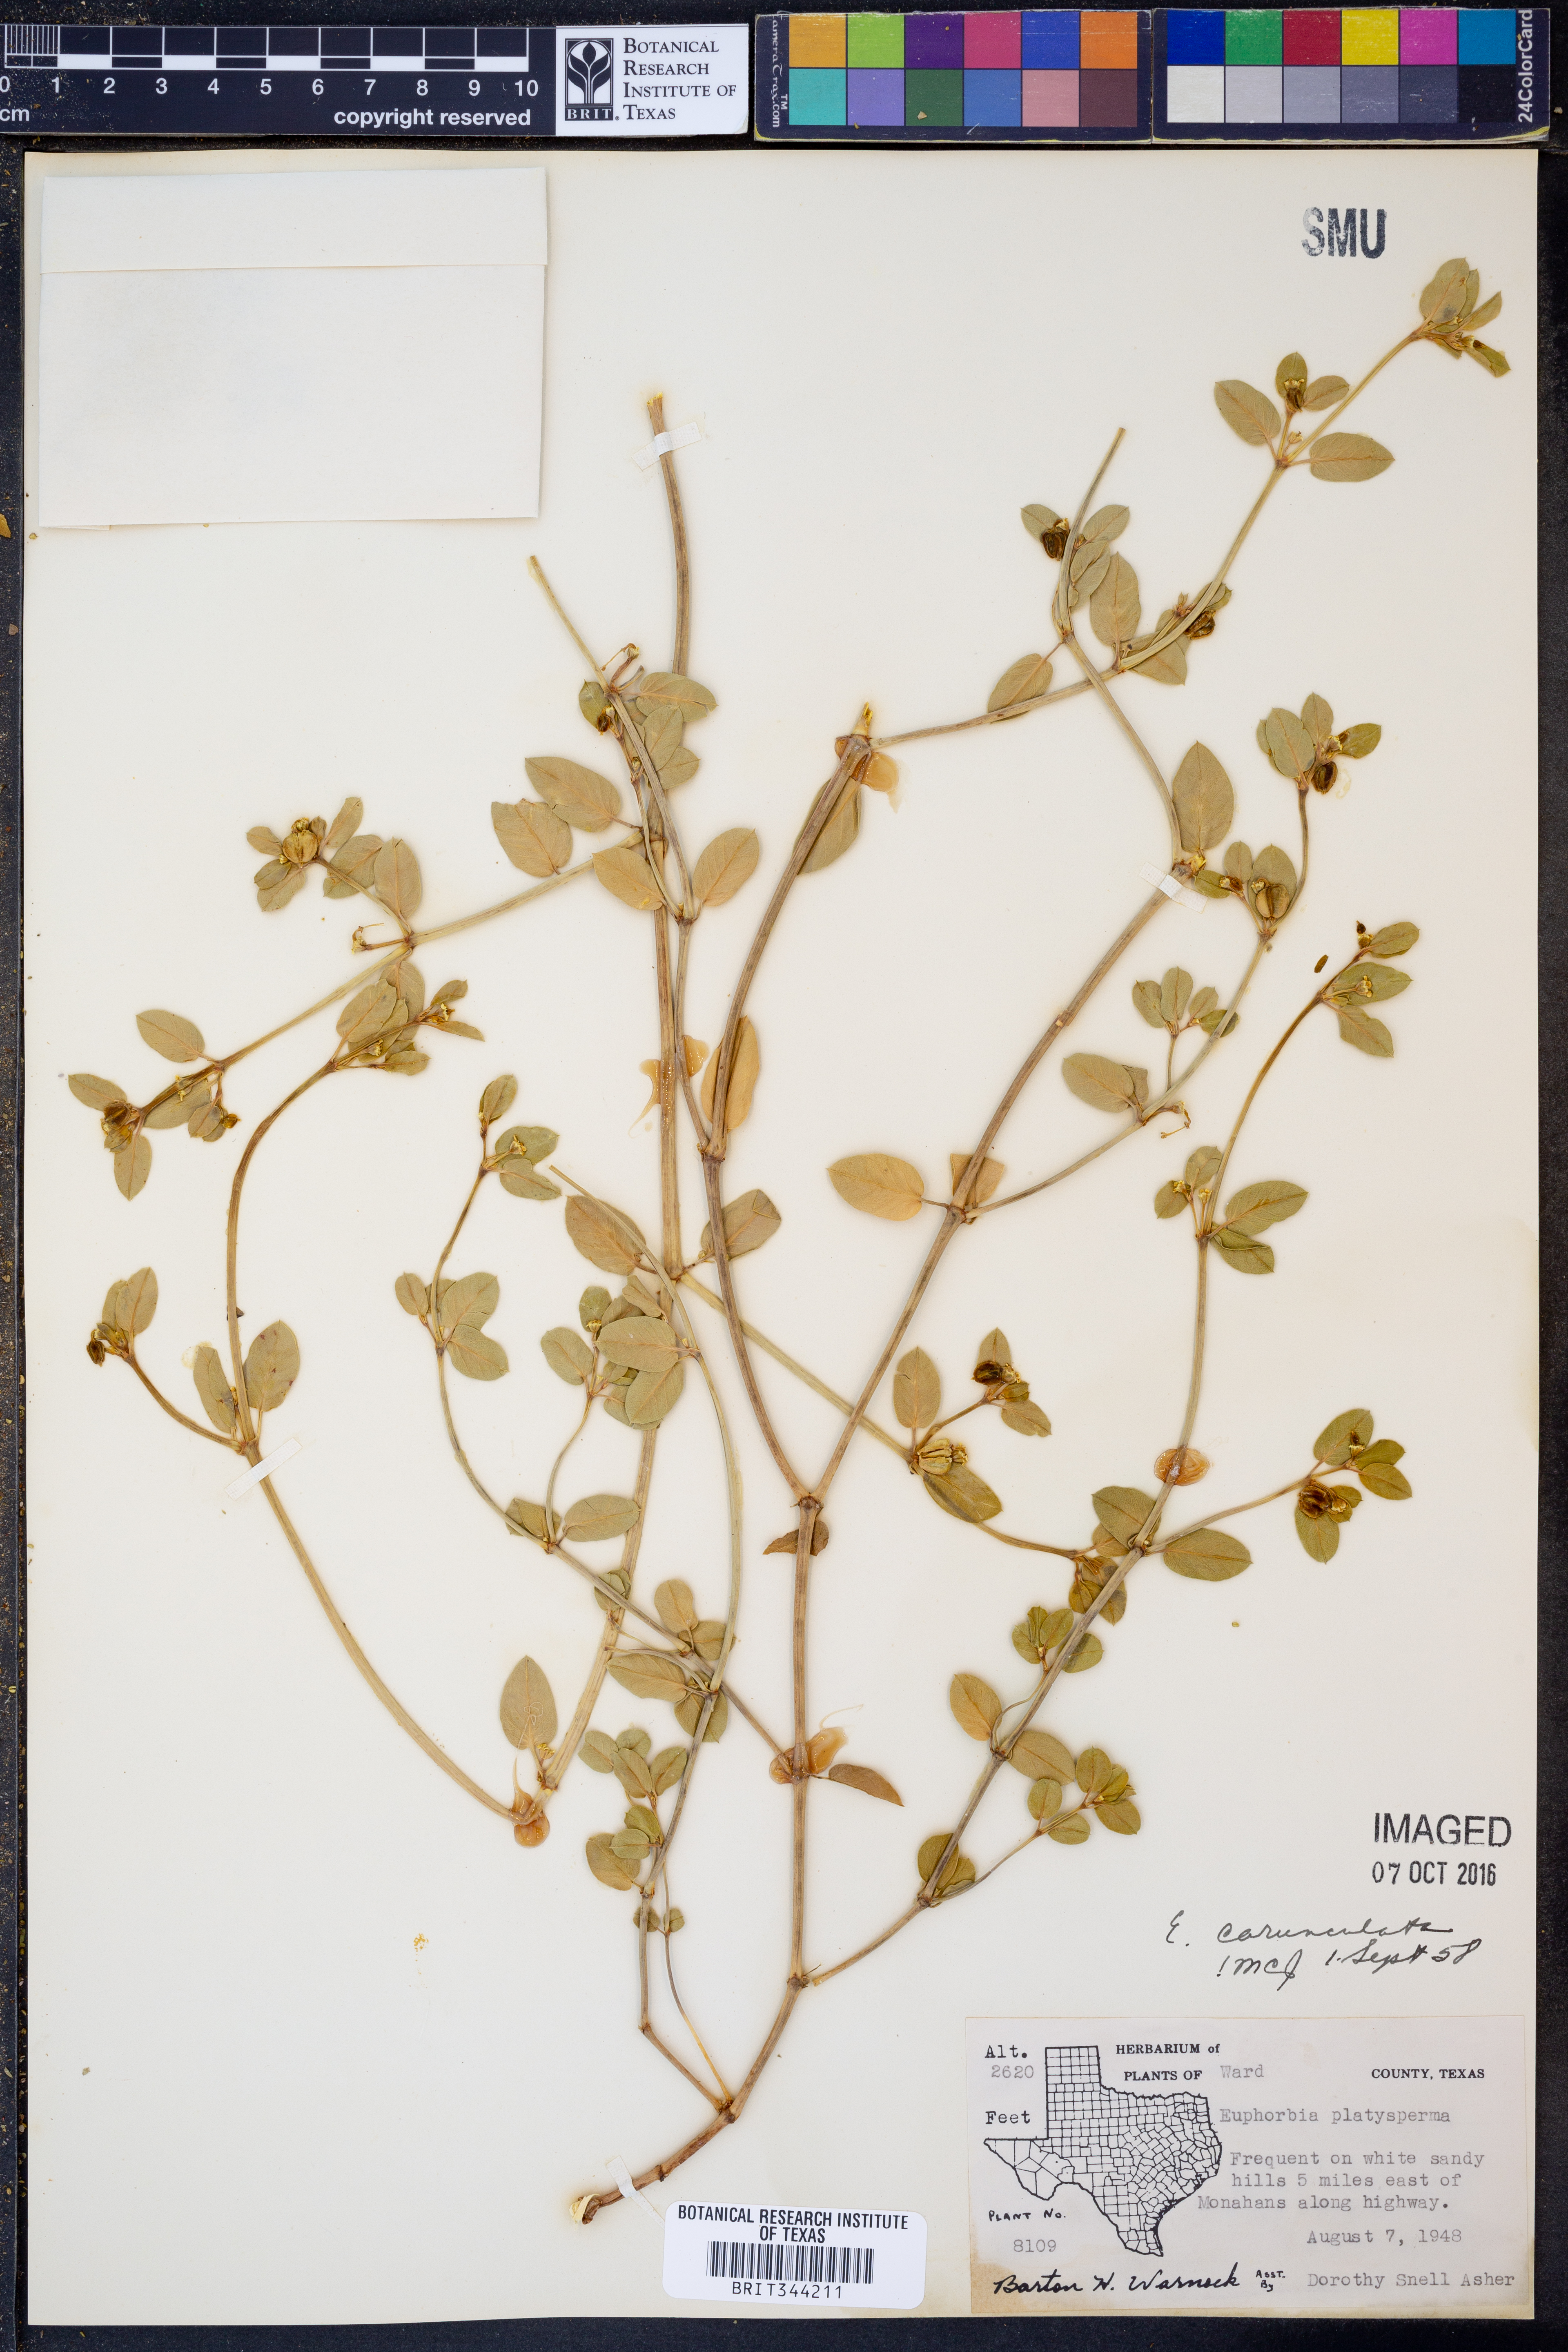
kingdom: Plantae
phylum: Tracheophyta
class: Magnoliopsida
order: Malpighiales
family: Euphorbiaceae
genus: Euphorbia
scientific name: Euphorbia carunculata
